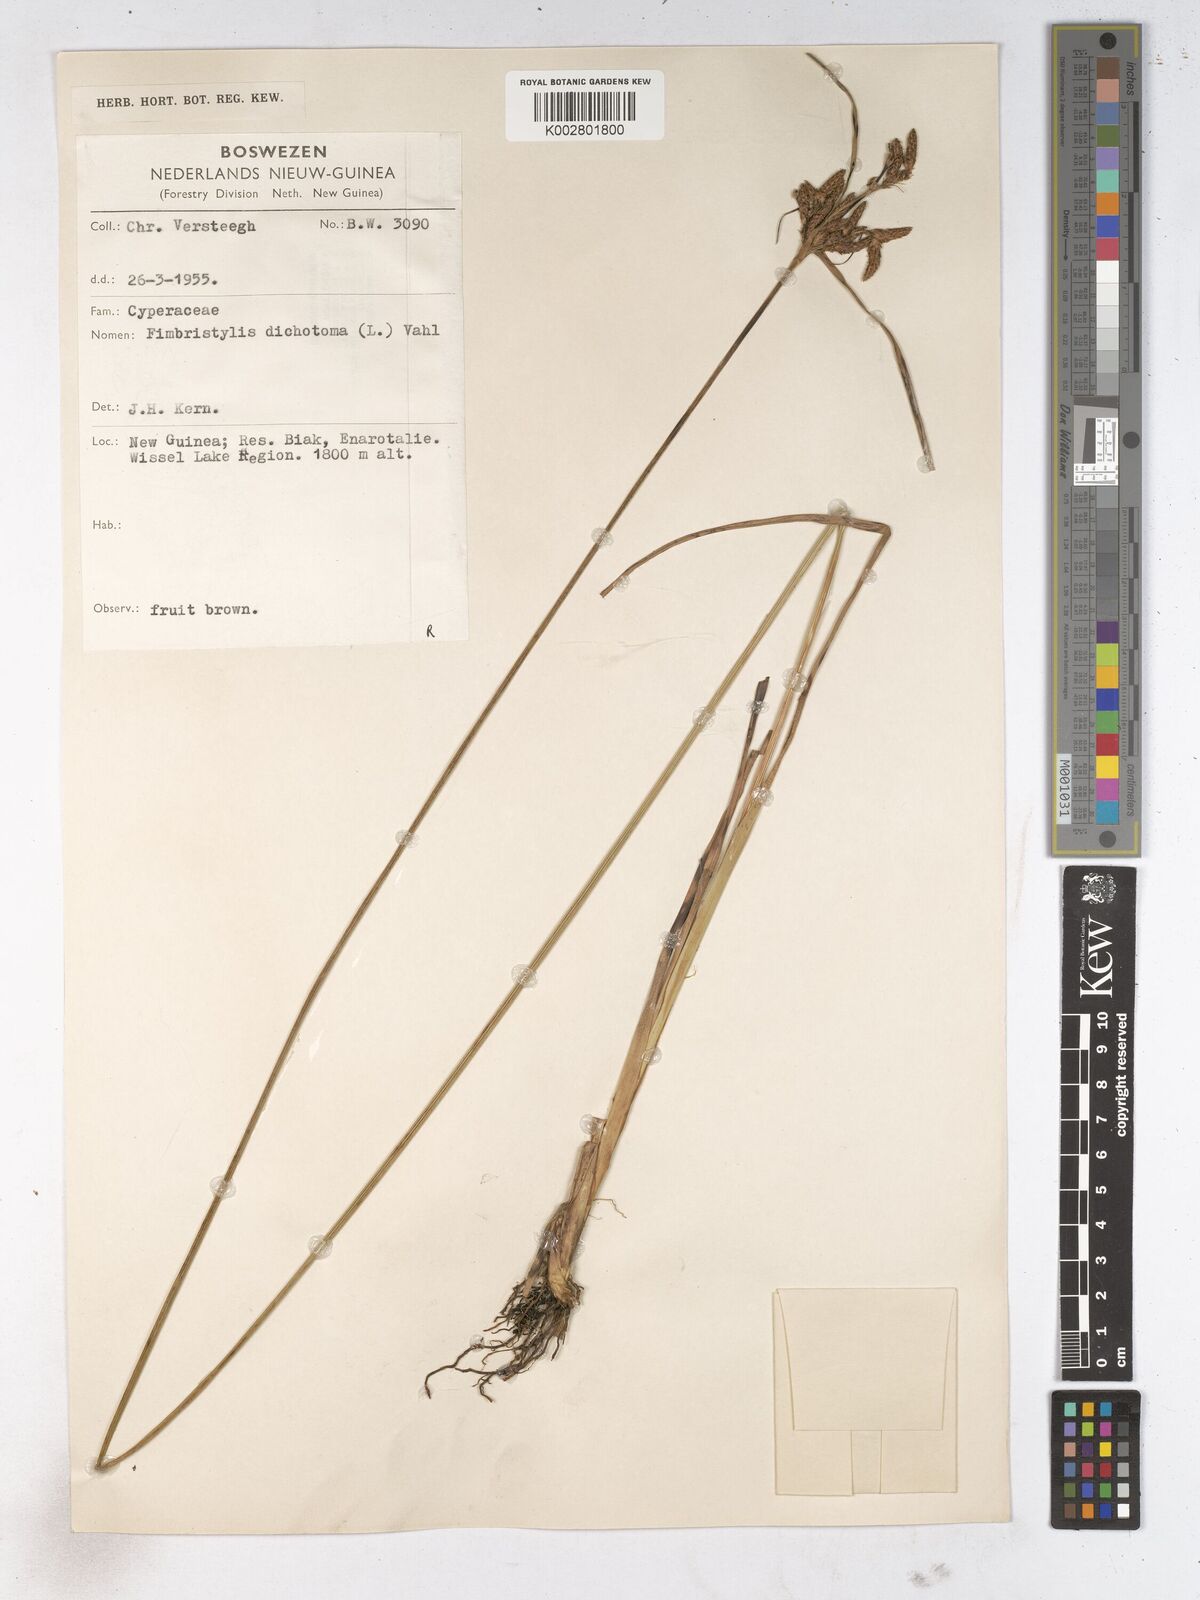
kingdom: Plantae
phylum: Tracheophyta
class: Liliopsida
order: Poales
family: Cyperaceae
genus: Fimbristylis
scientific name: Fimbristylis dichotoma
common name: Forked fimbry
